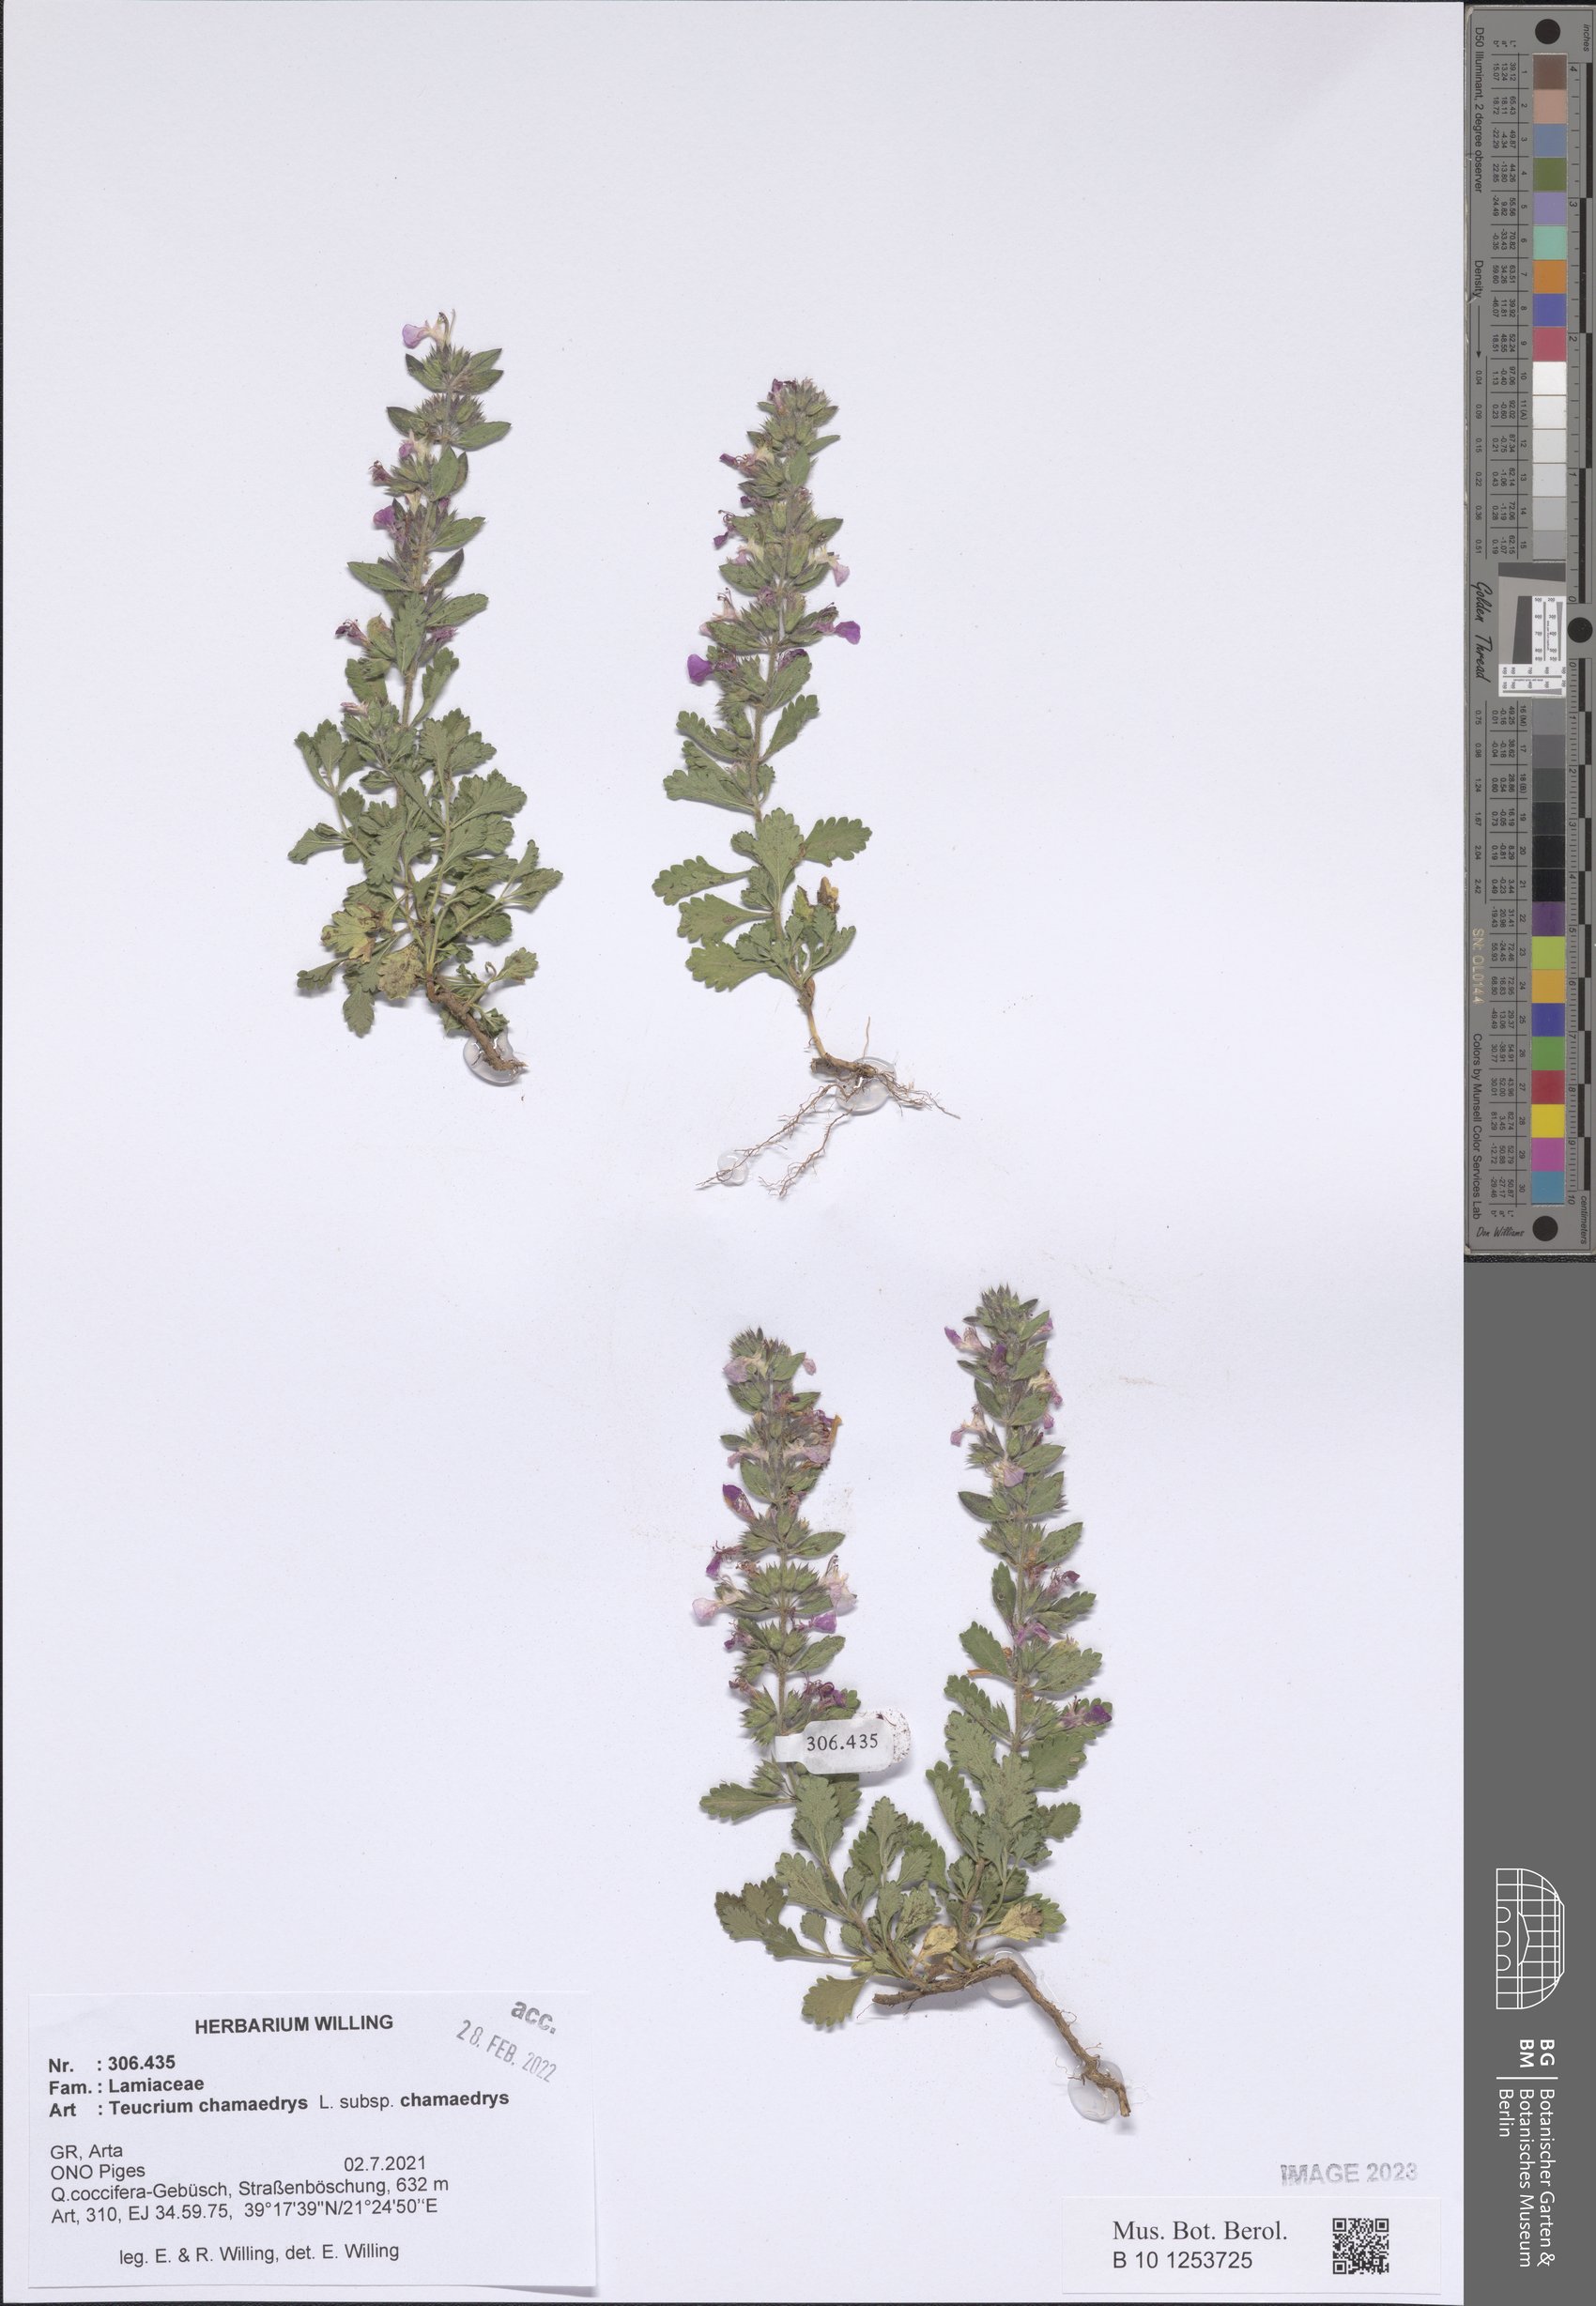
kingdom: Plantae
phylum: Tracheophyta
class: Magnoliopsida
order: Lamiales
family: Lamiaceae
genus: Teucrium
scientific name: Teucrium chamaedrys
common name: Wall germander
